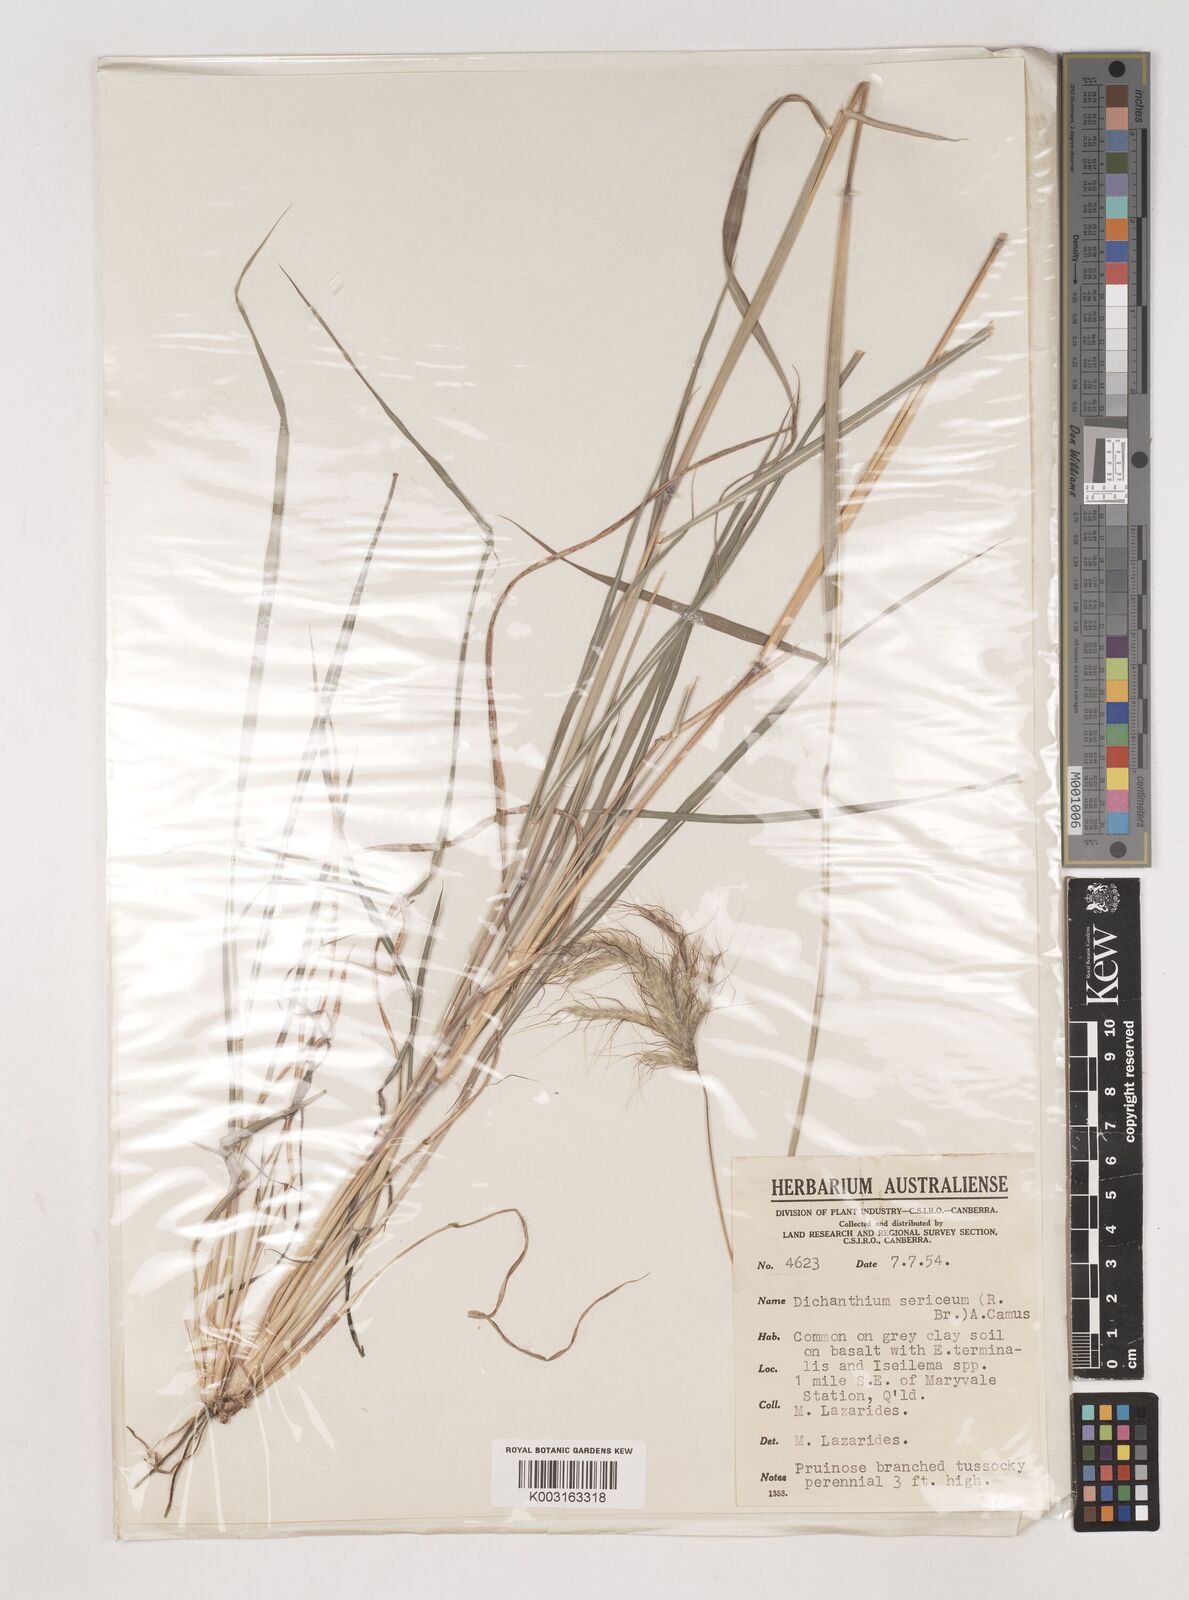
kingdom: Plantae
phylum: Tracheophyta
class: Liliopsida
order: Poales
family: Poaceae
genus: Dichanthium
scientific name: Dichanthium sericeum
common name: Silky bluestem
